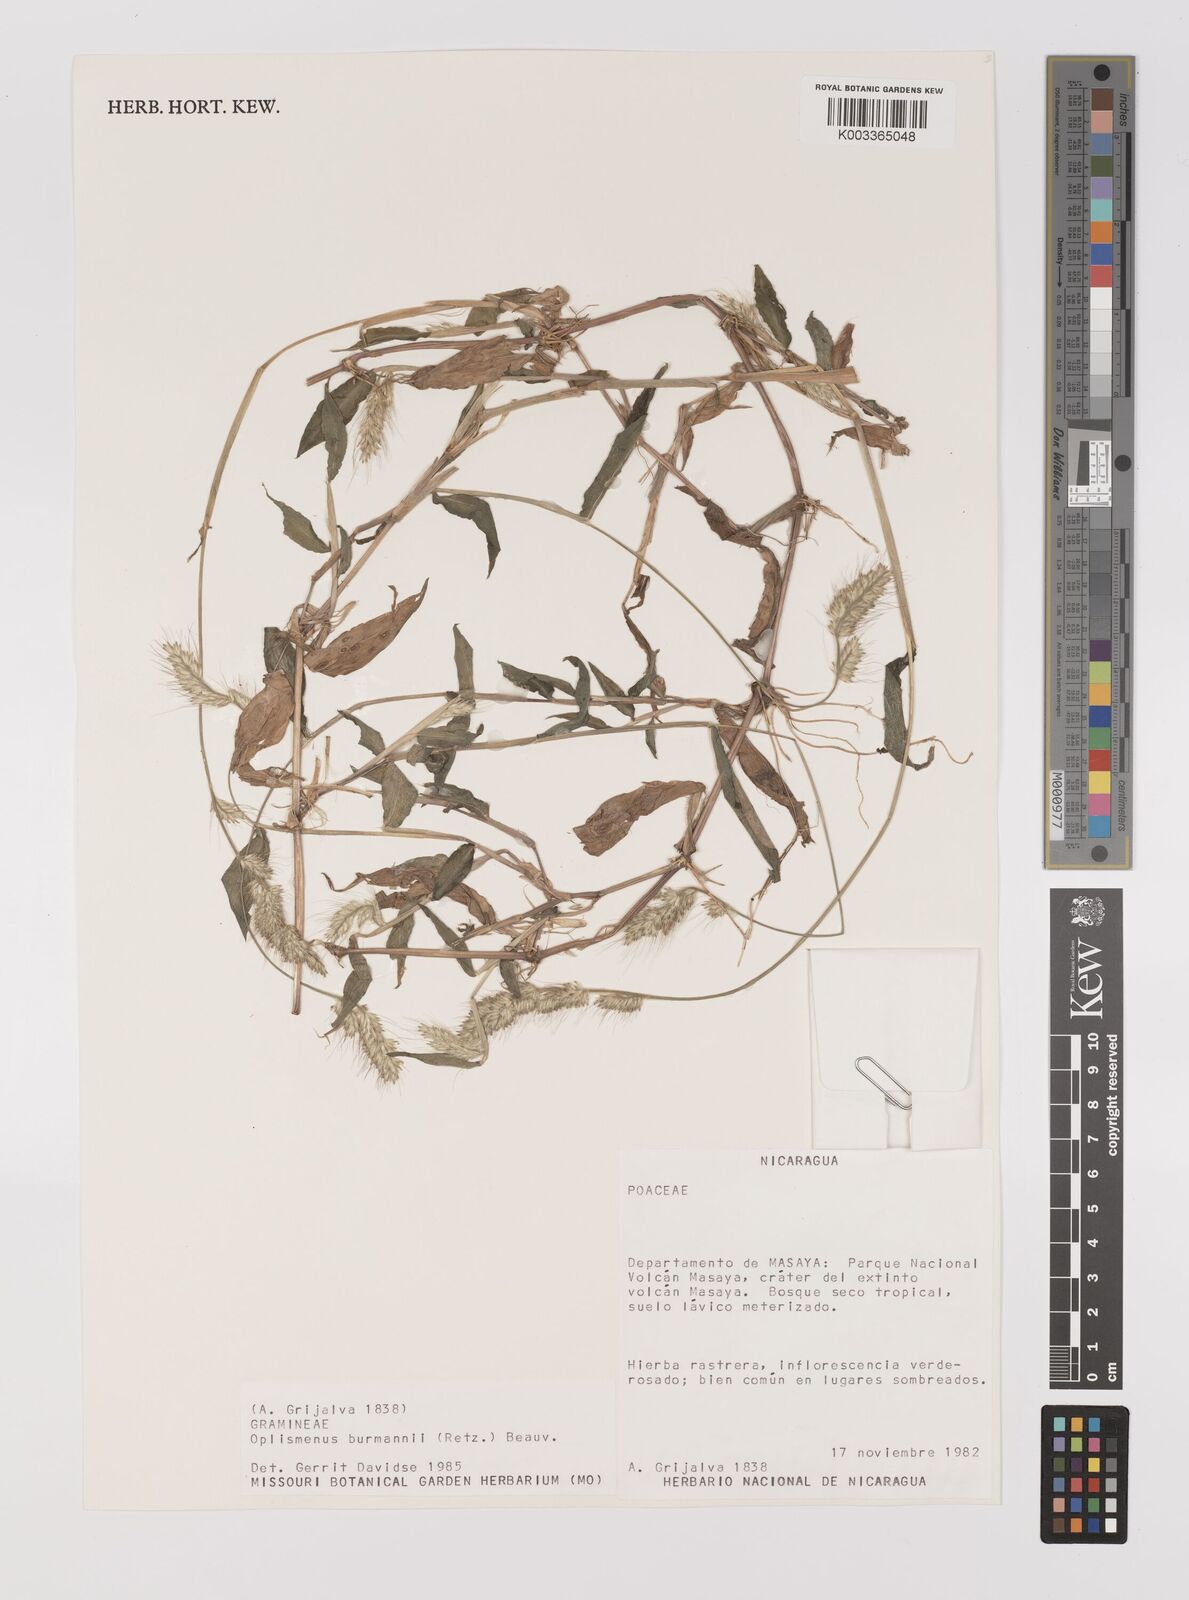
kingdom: Plantae
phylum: Tracheophyta
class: Liliopsida
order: Poales
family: Poaceae
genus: Oplismenus
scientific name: Oplismenus burmanni
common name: Burmann's basketgrass
